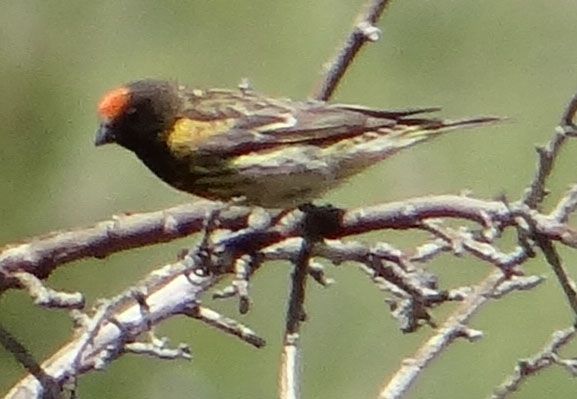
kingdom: Animalia
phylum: Chordata
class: Aves
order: Passeriformes
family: Fringillidae
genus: Serinus
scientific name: Serinus pusillus
